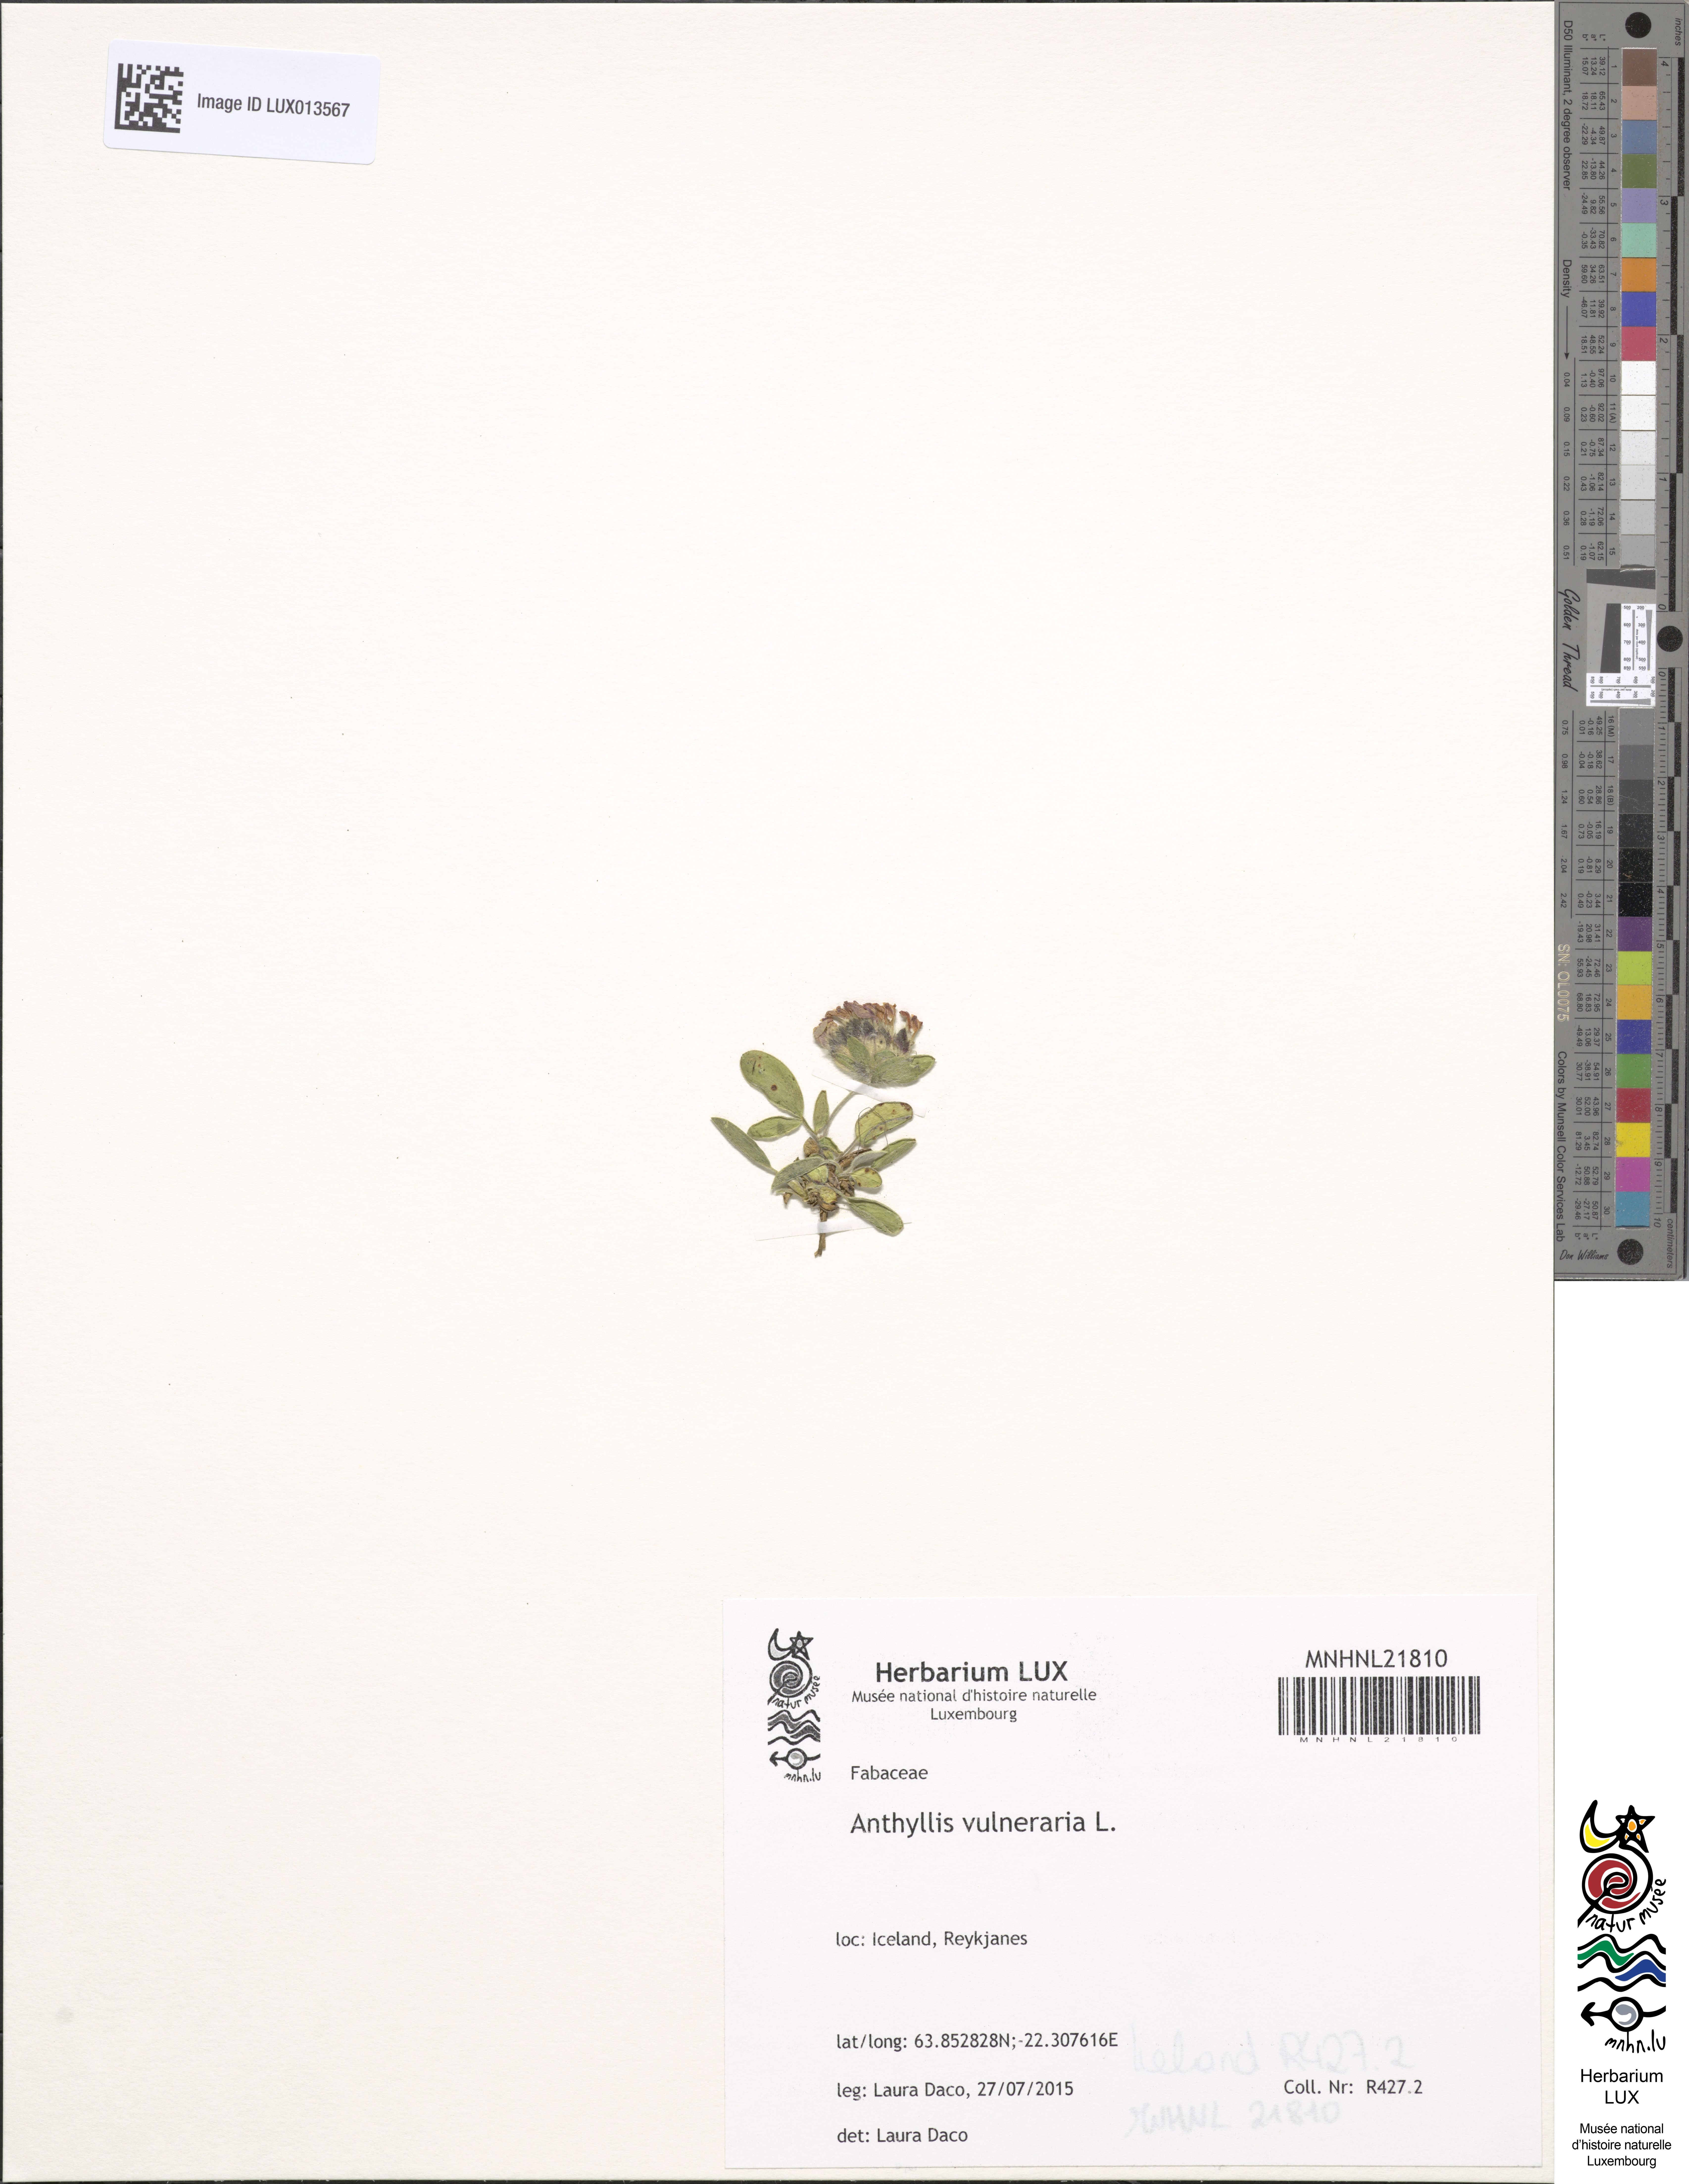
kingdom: Plantae
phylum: Tracheophyta
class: Magnoliopsida
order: Fabales
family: Fabaceae
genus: Anthyllis
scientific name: Anthyllis vulneraria
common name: Kidney vetch
